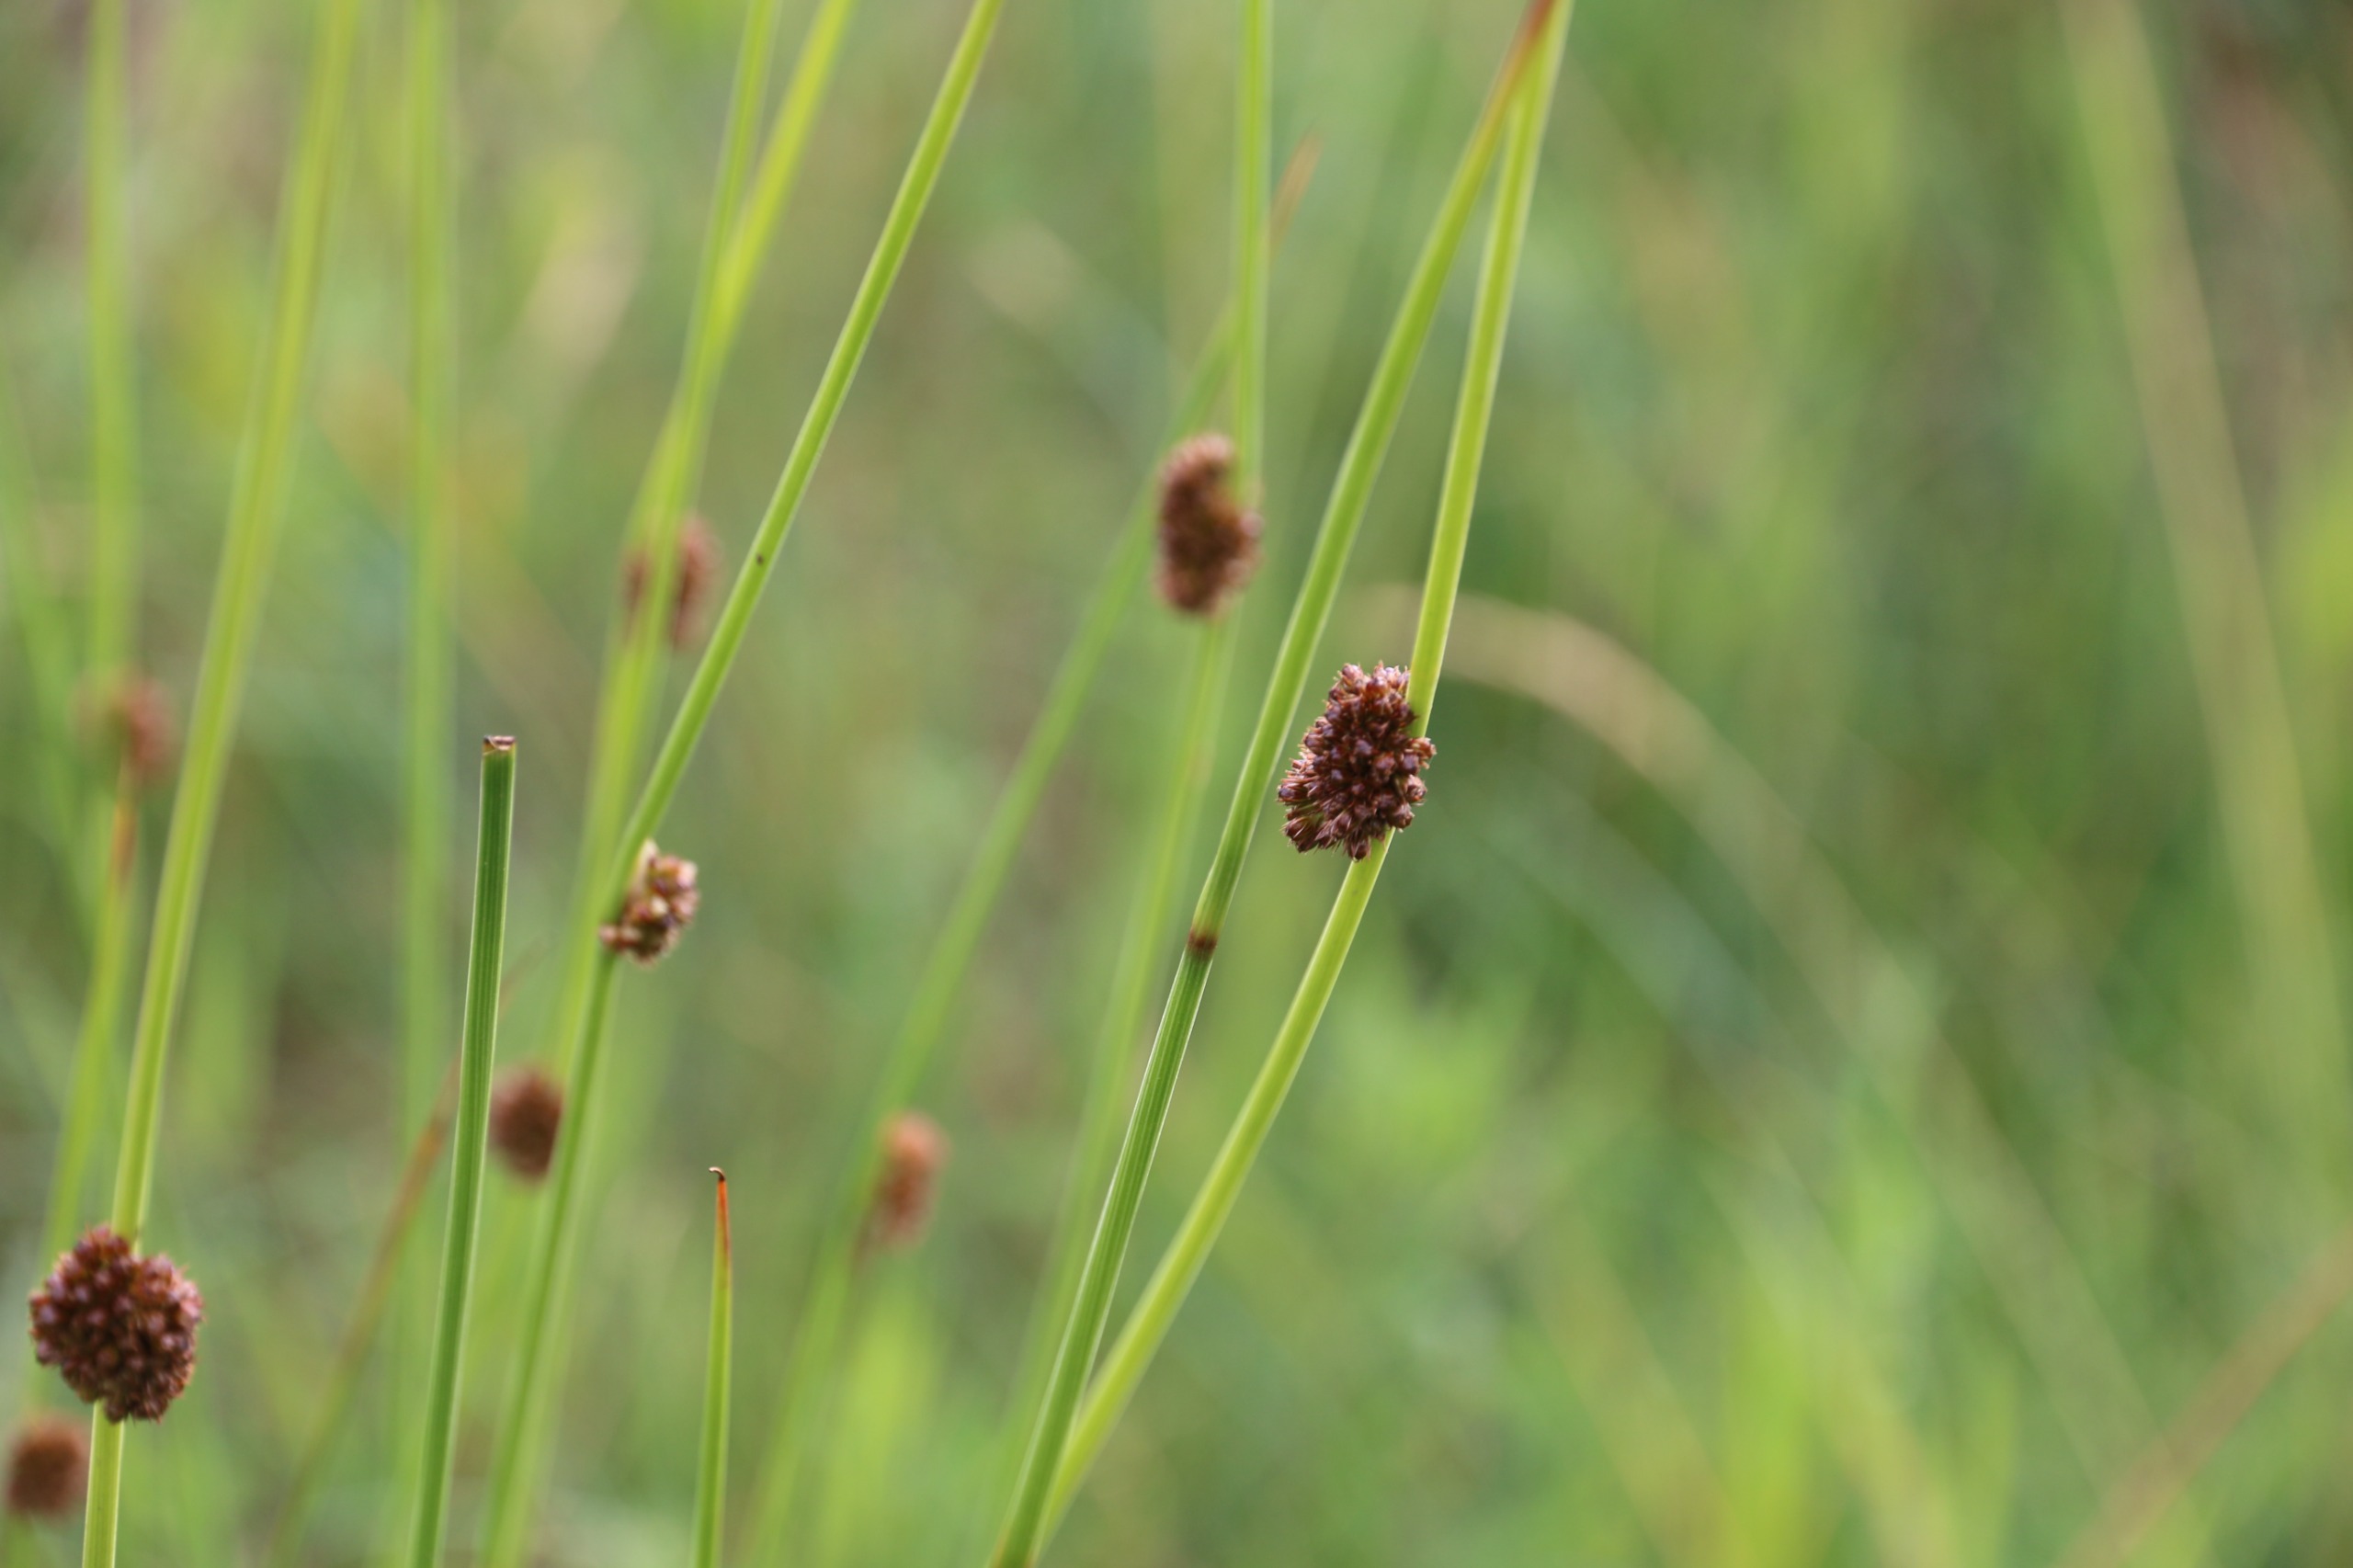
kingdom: Plantae
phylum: Tracheophyta
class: Liliopsida
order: Poales
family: Juncaceae
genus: Juncus
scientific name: Juncus conglomeratus
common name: Knop-siv
